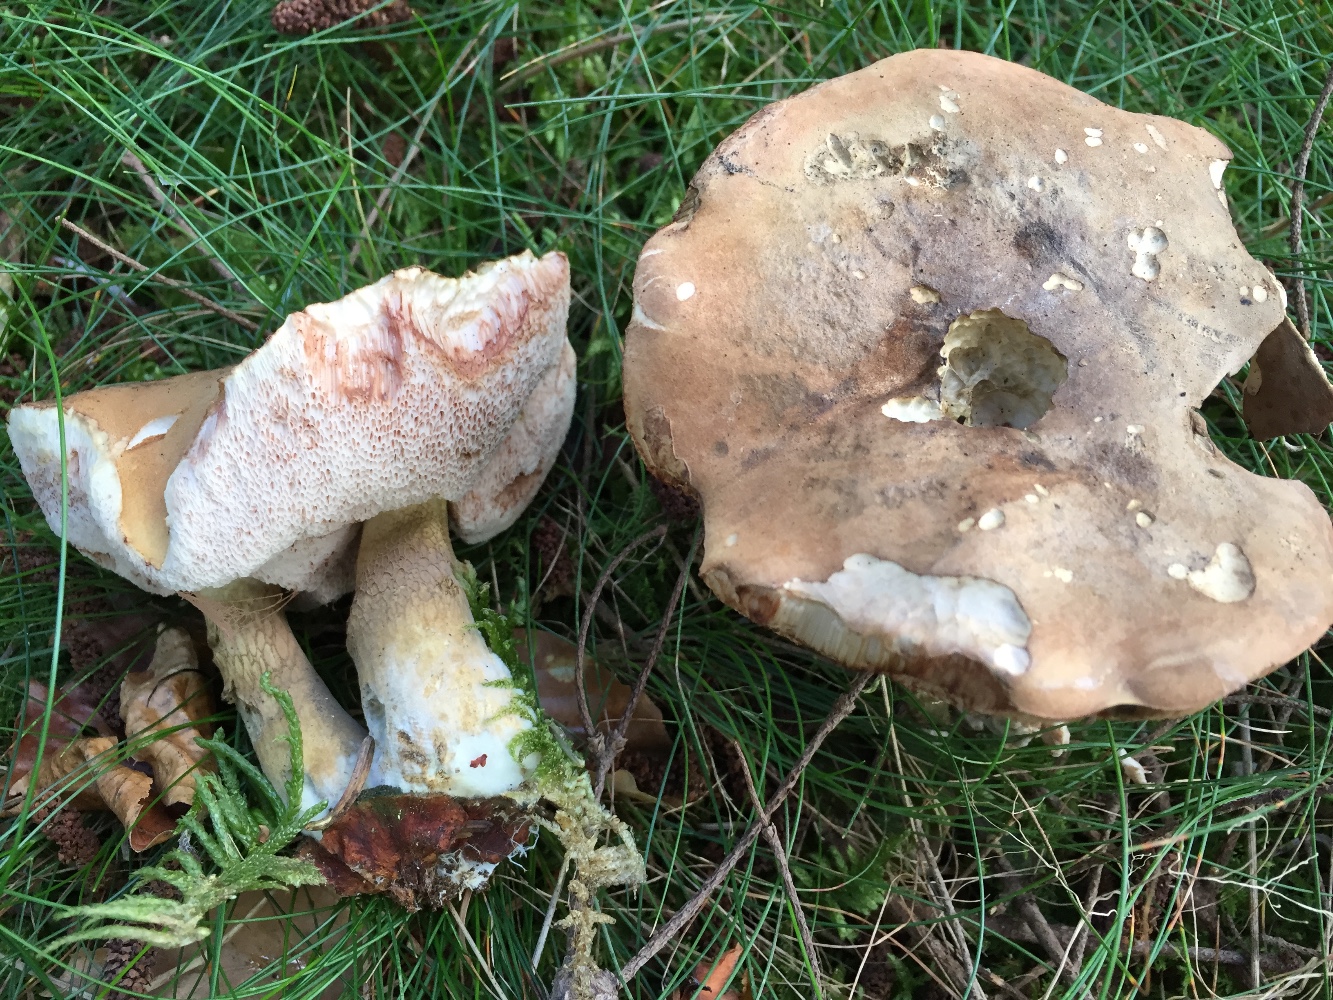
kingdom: Fungi
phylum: Basidiomycota
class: Agaricomycetes
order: Boletales
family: Boletaceae
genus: Tylopilus
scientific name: Tylopilus felleus
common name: galderørhat
